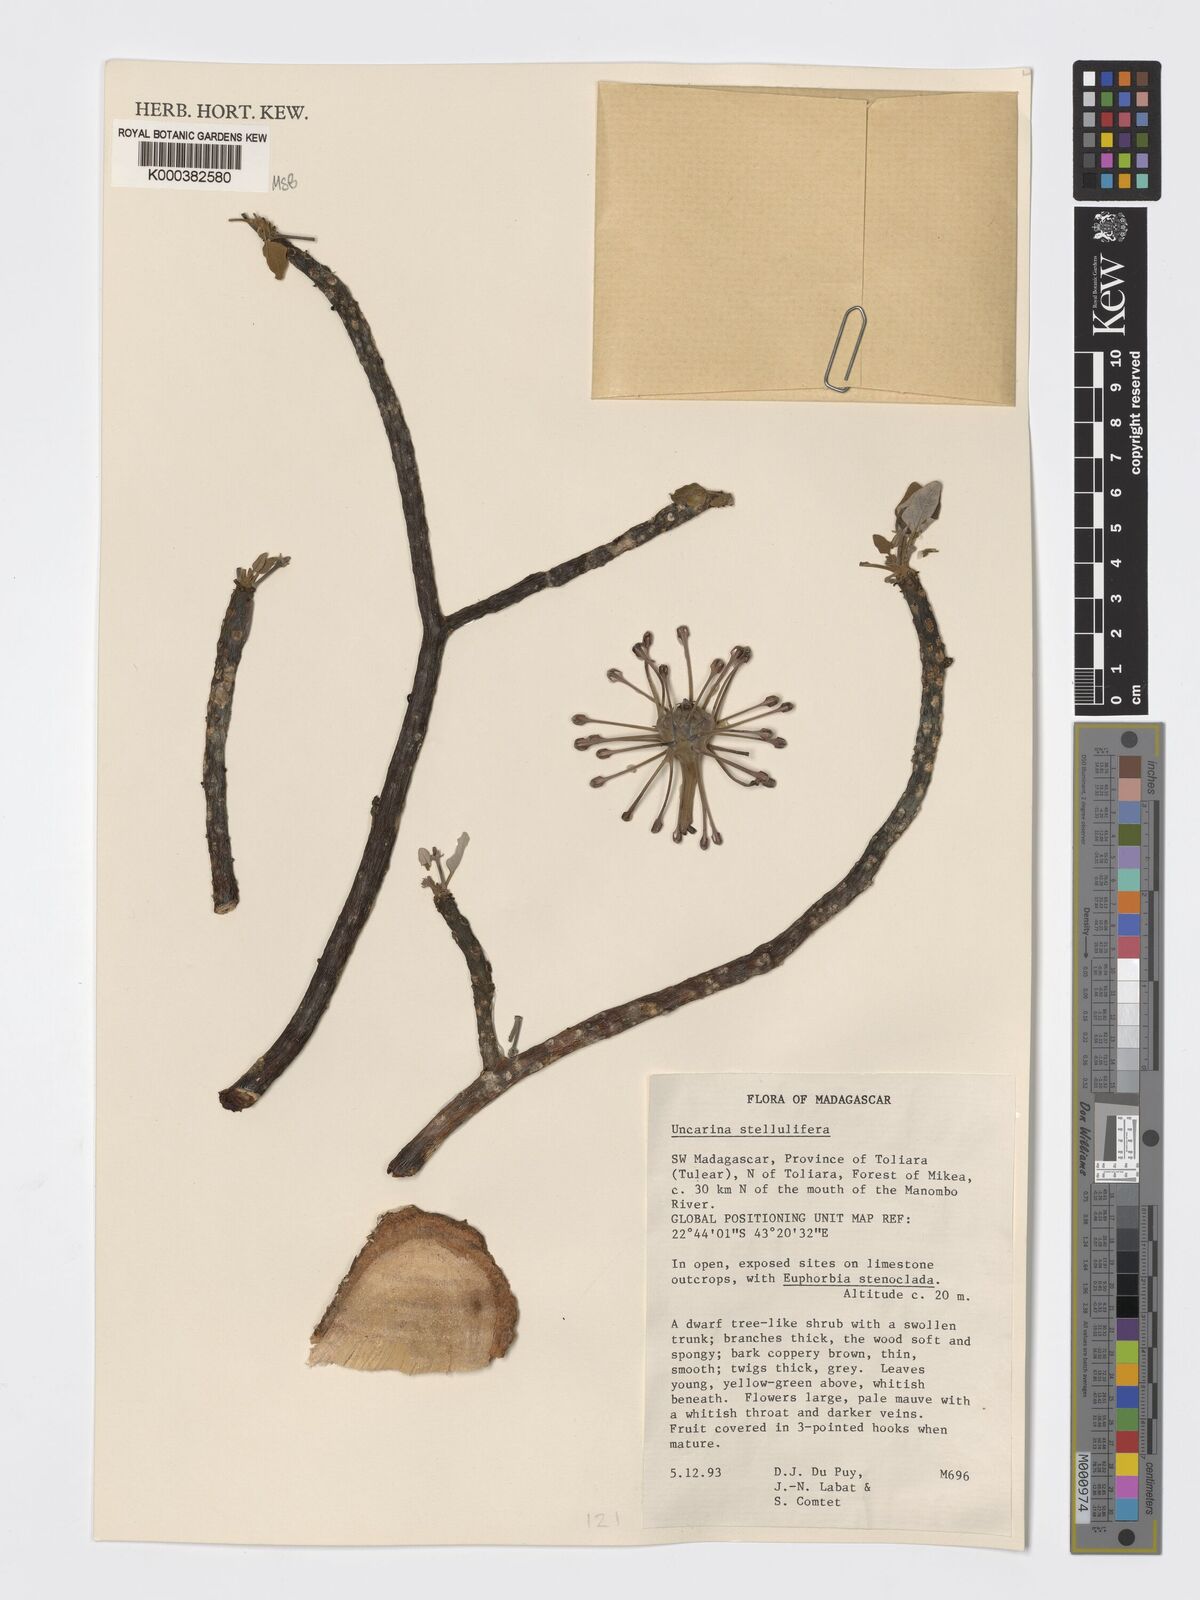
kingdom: Plantae
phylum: Tracheophyta
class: Magnoliopsida
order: Lamiales
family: Pedaliaceae
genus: Uncarina
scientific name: Uncarina stellulifera
